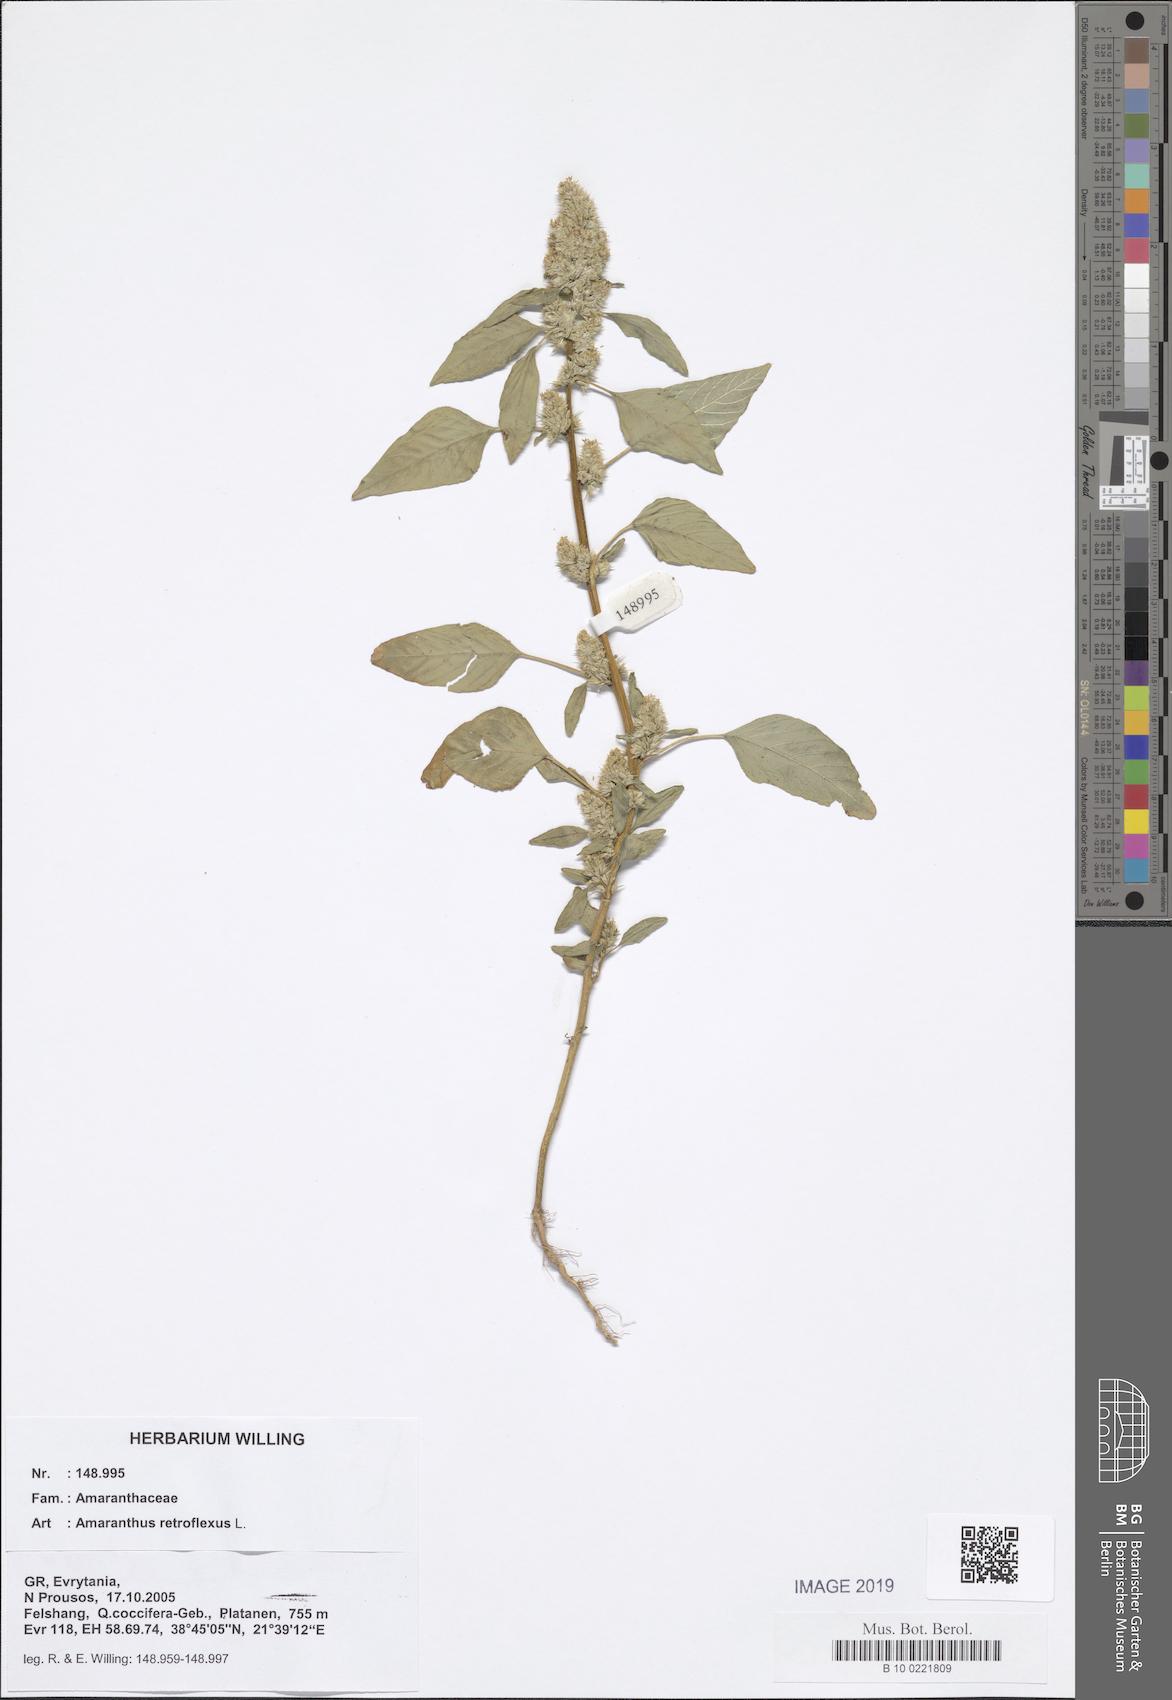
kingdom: Plantae
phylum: Tracheophyta
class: Magnoliopsida
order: Caryophyllales
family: Amaranthaceae
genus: Amaranthus
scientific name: Amaranthus retroflexus
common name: Redroot amaranth
